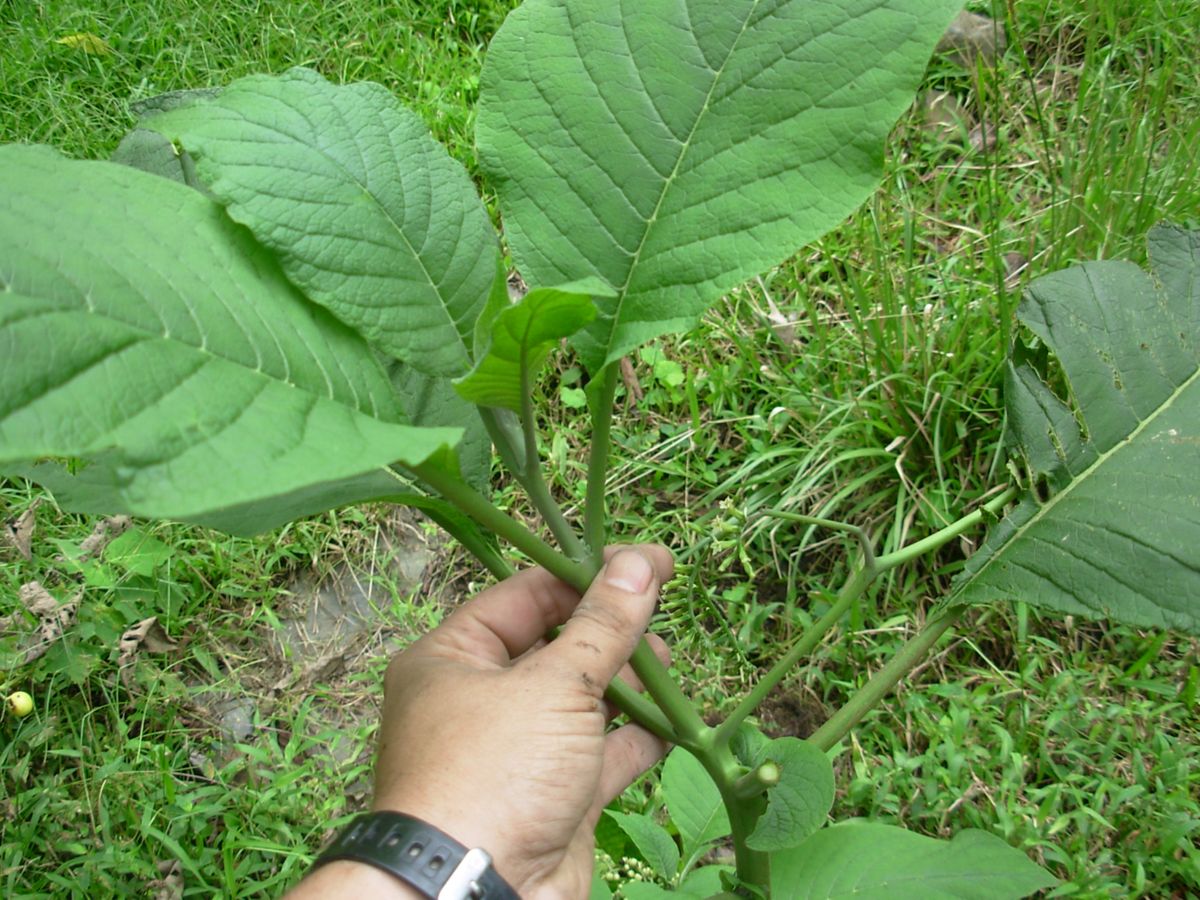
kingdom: Plantae
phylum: Tracheophyta
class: Magnoliopsida
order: Boraginales
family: Heliotropiaceae
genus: Tournefortia
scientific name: Tournefortia petiolaris
